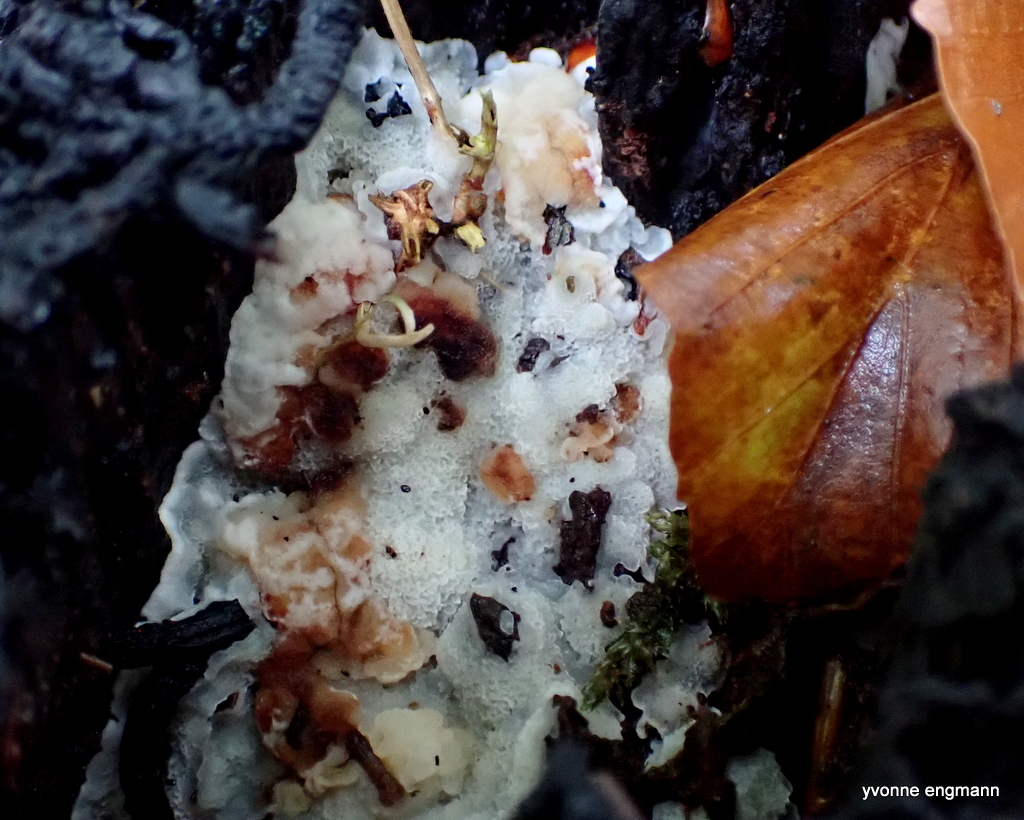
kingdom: Fungi
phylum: Basidiomycota
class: Agaricomycetes
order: Polyporales
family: Meruliaceae
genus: Physisporinus
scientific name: Physisporinus vitreus
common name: mastesvamp
